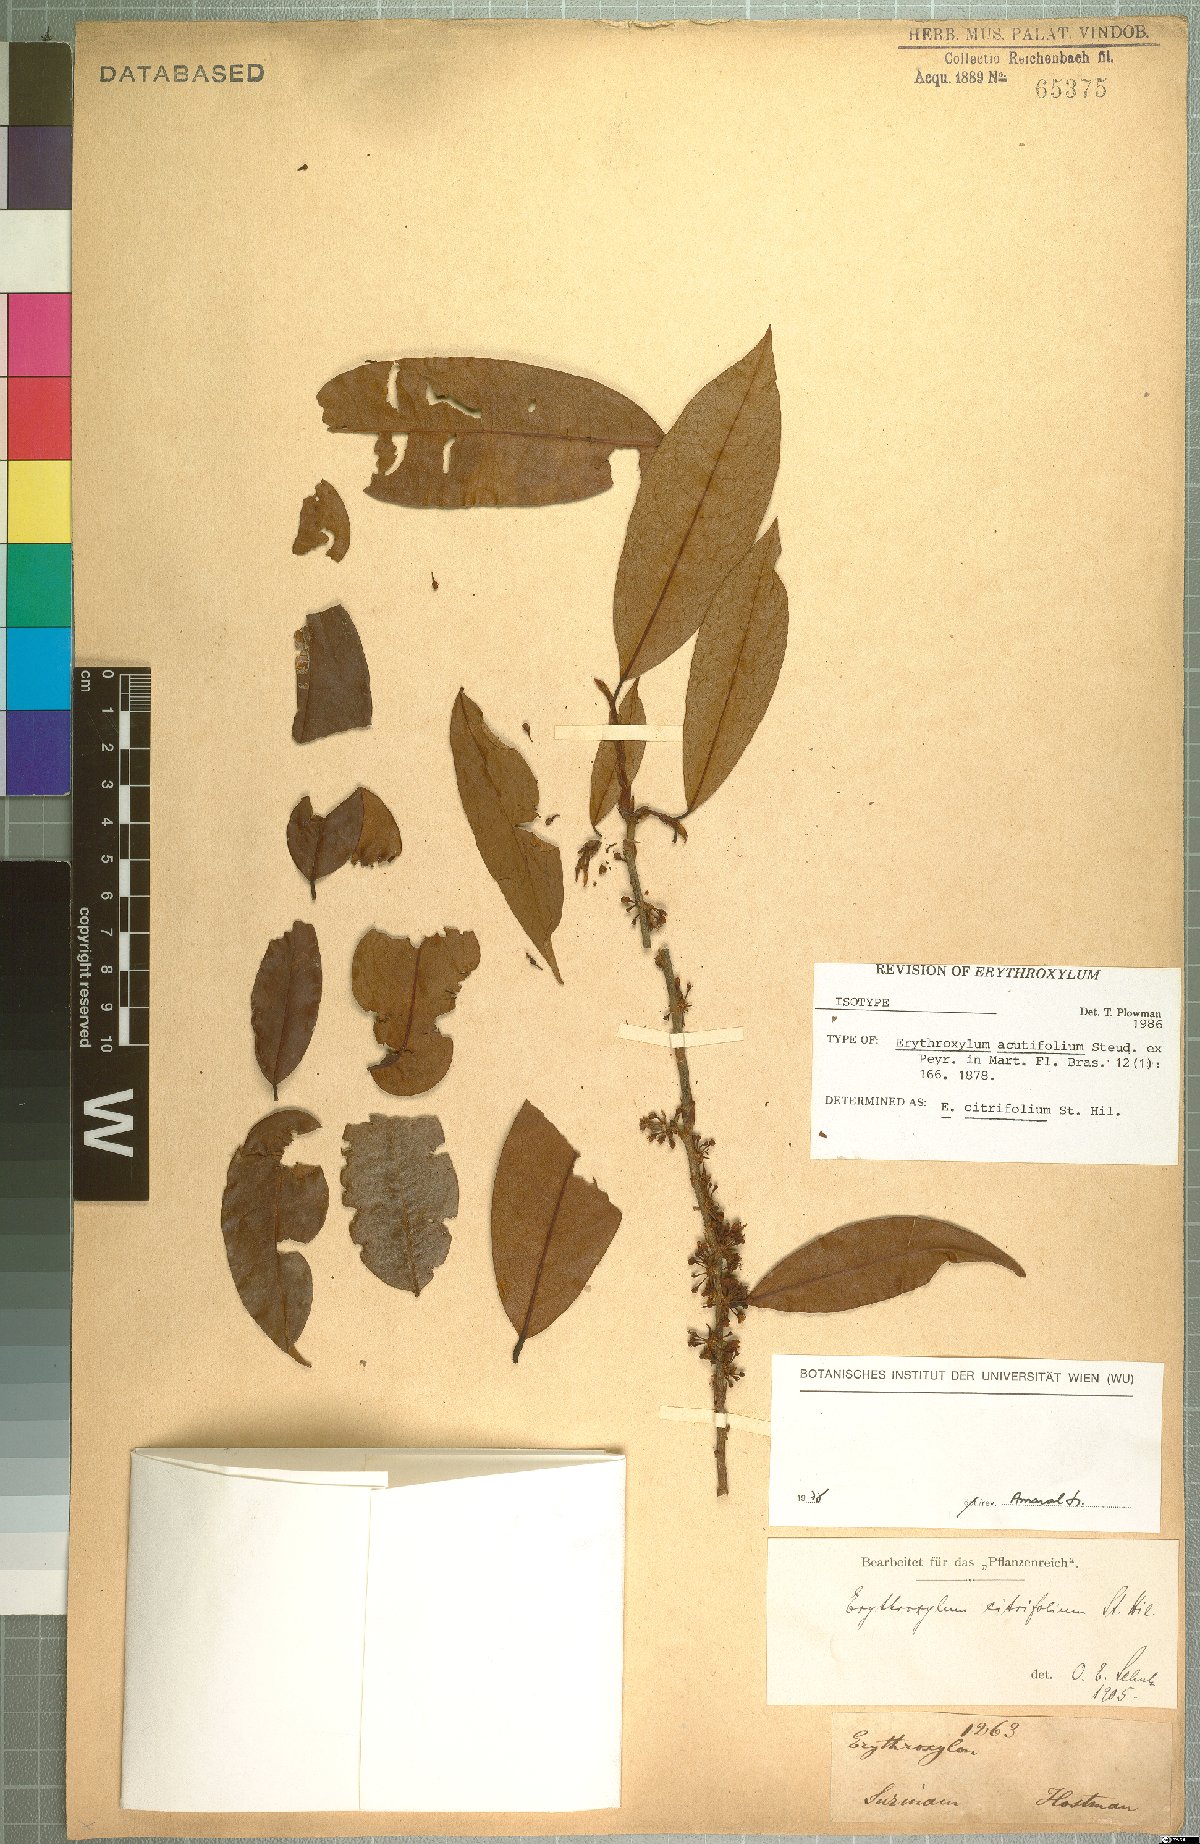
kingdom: Plantae
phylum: Tracheophyta
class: Magnoliopsida
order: Malpighiales
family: Erythroxylaceae
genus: Erythroxylum
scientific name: Erythroxylum citrifolium
